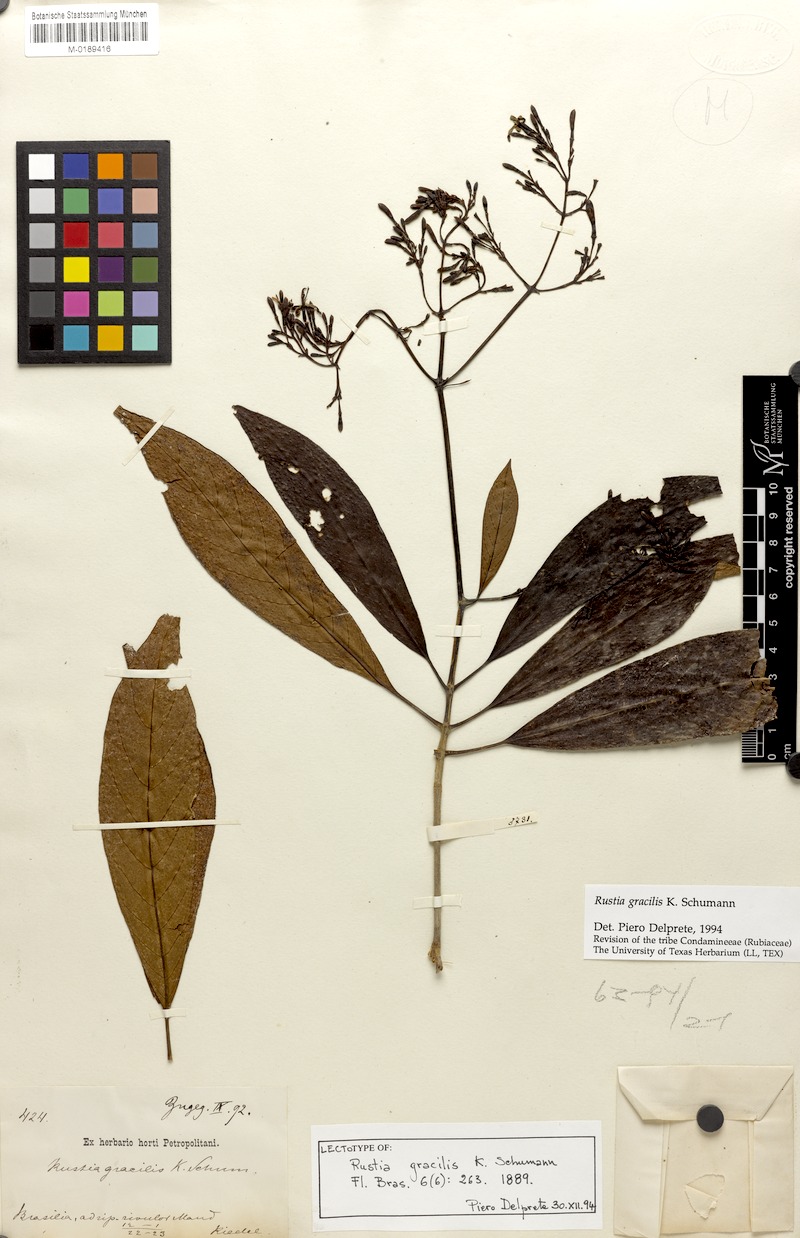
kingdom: Plantae
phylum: Tracheophyta
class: Magnoliopsida
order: Gentianales
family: Rubiaceae
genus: Rustia
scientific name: Rustia gracilis
